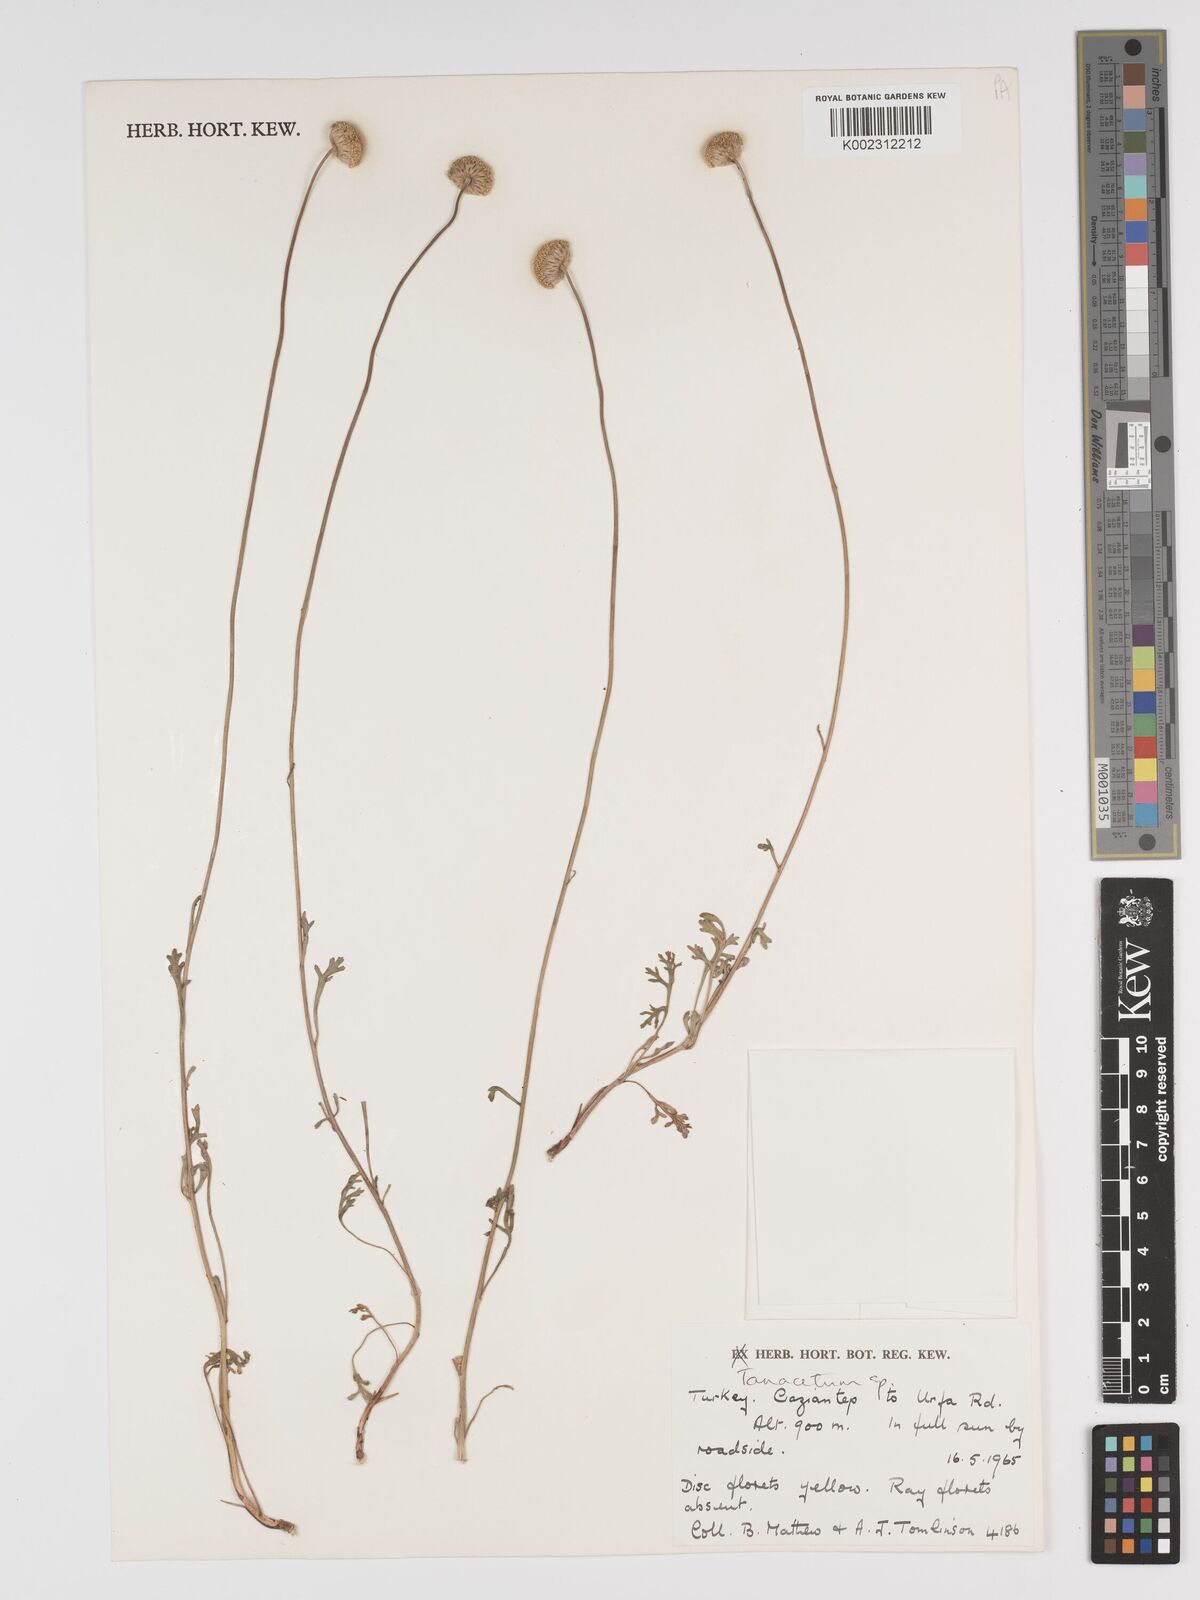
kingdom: Plantae
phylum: Tracheophyta
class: Magnoliopsida
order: Asterales
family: Asteraceae
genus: Tanacetum
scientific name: Tanacetum
